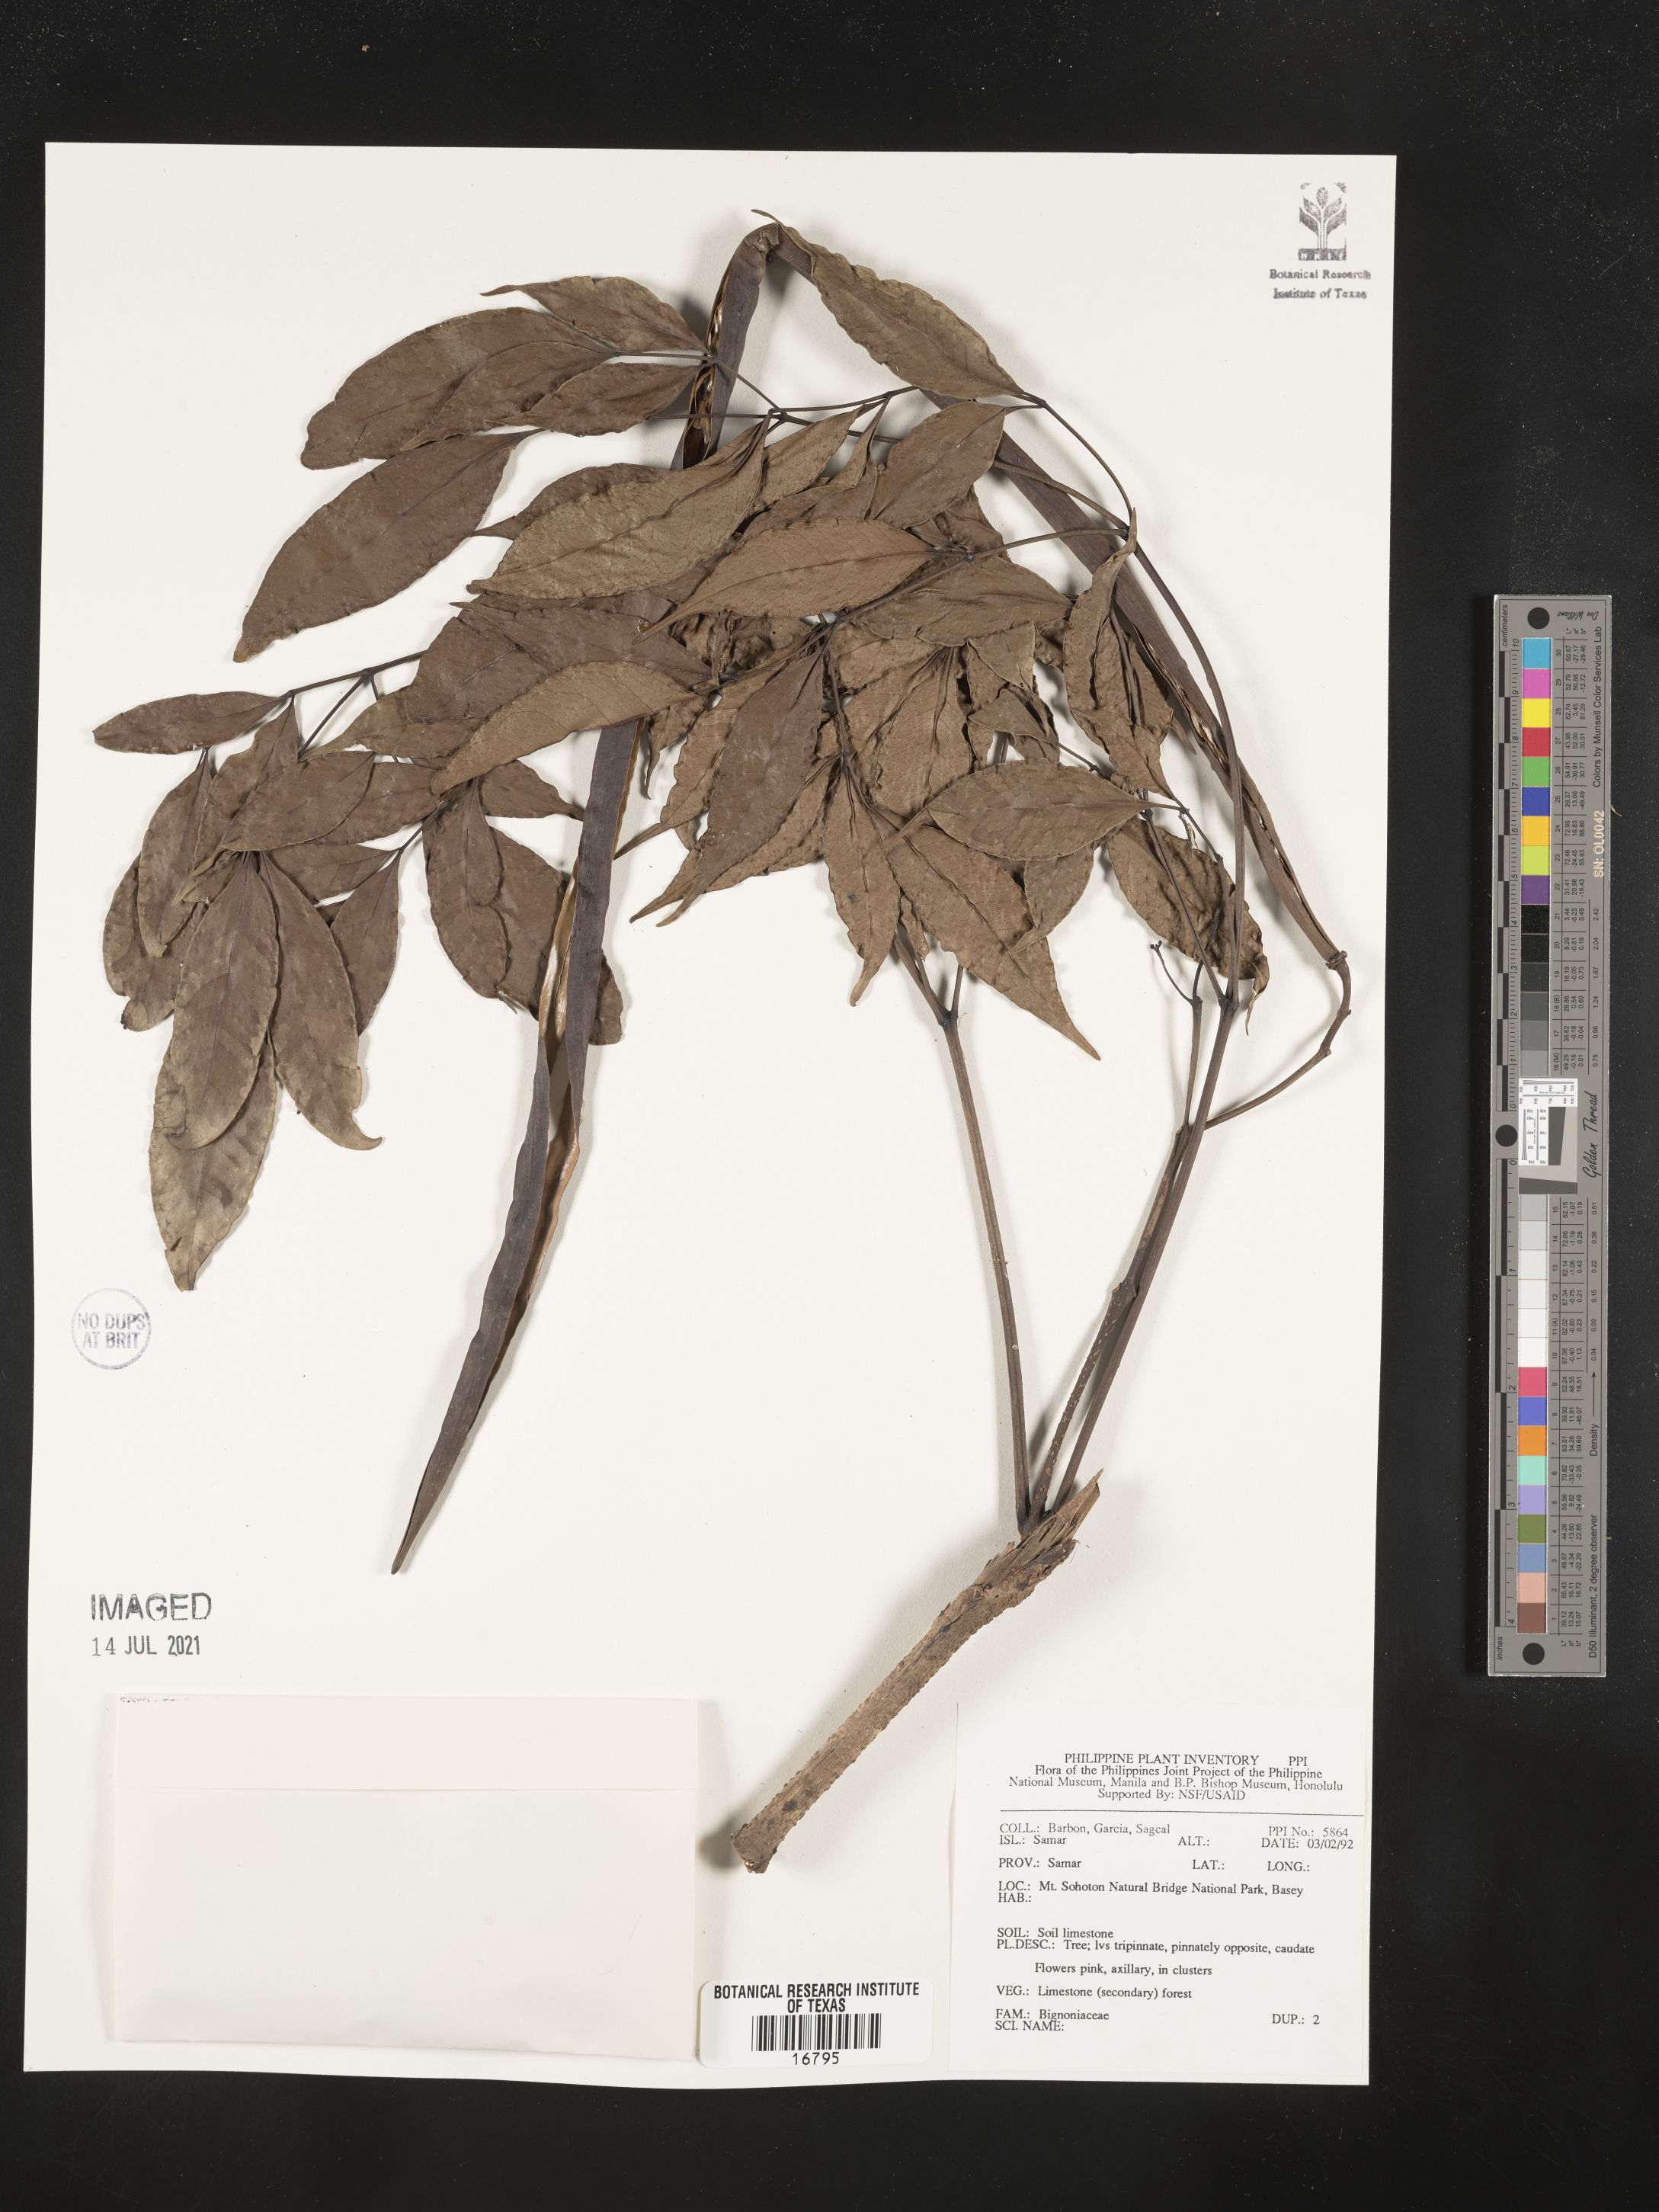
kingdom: Plantae
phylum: Tracheophyta
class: Magnoliopsida
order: Lamiales
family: Bignoniaceae
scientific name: Bignoniaceae
